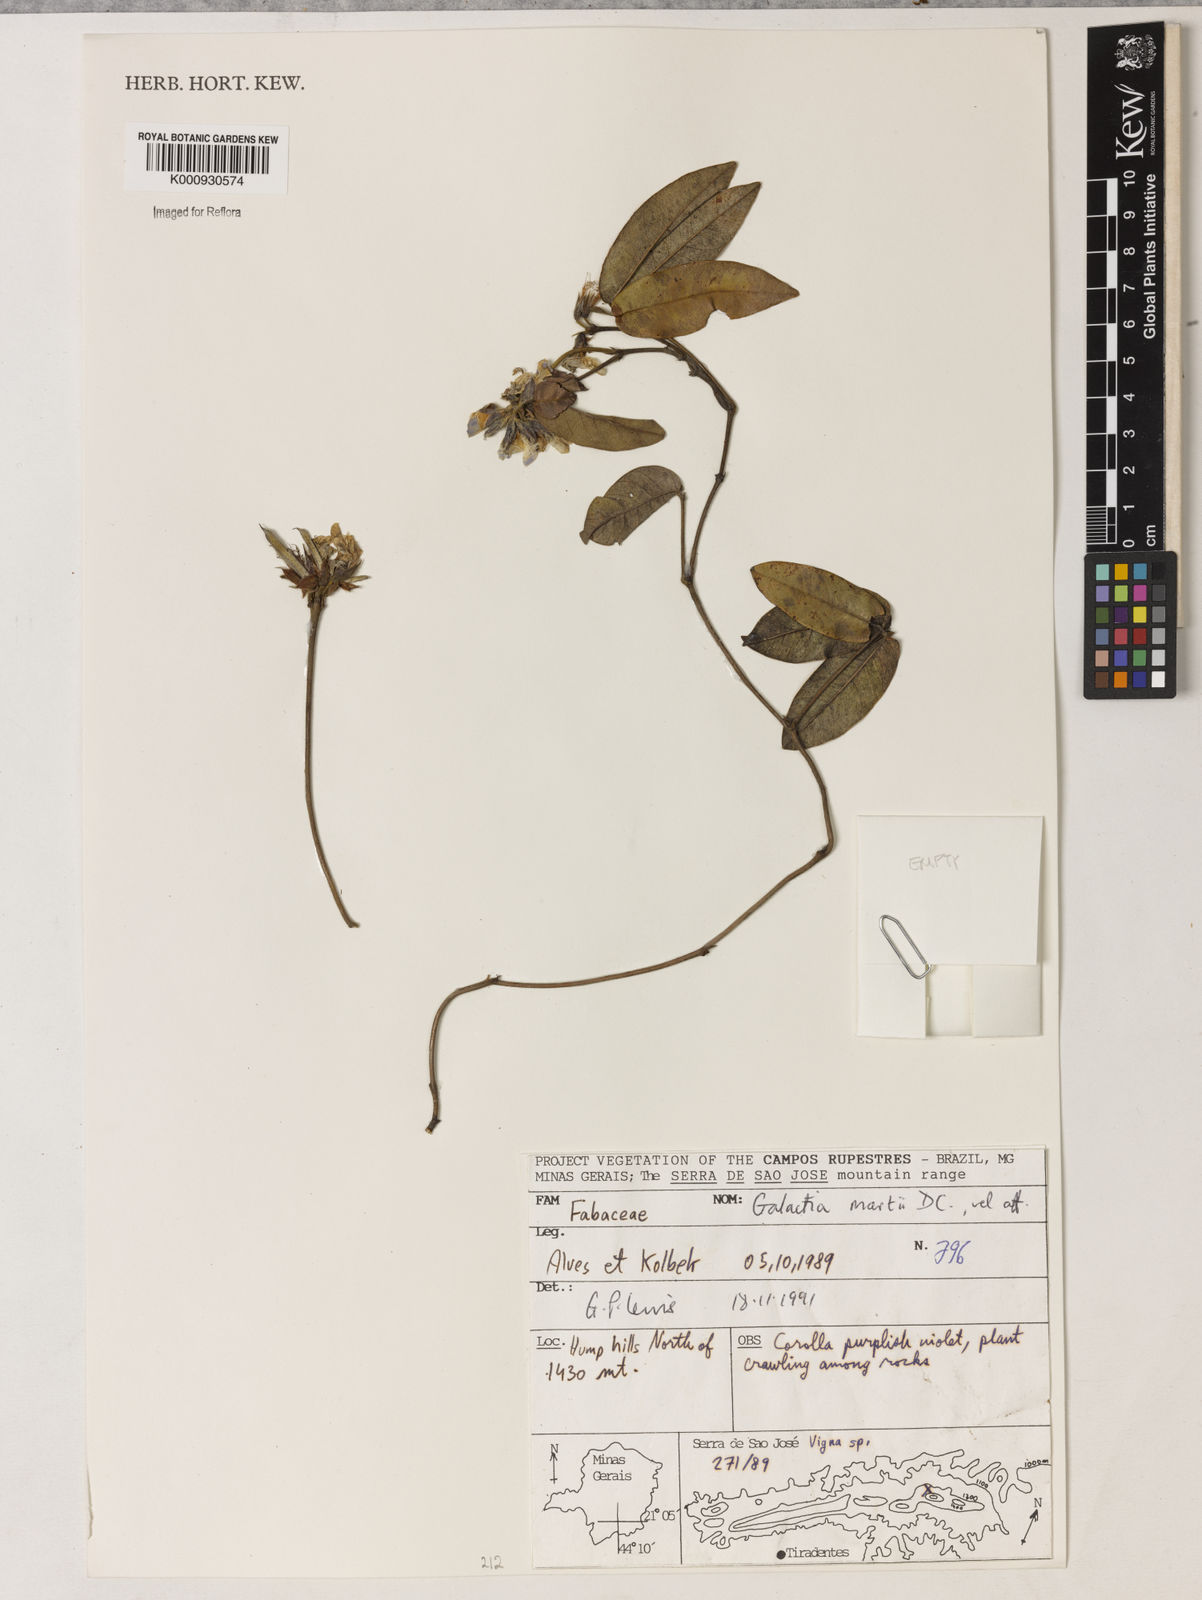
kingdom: Plantae
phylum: Tracheophyta
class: Magnoliopsida
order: Fabales
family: Fabaceae
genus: Betencourtia
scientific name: Betencourtia martii
